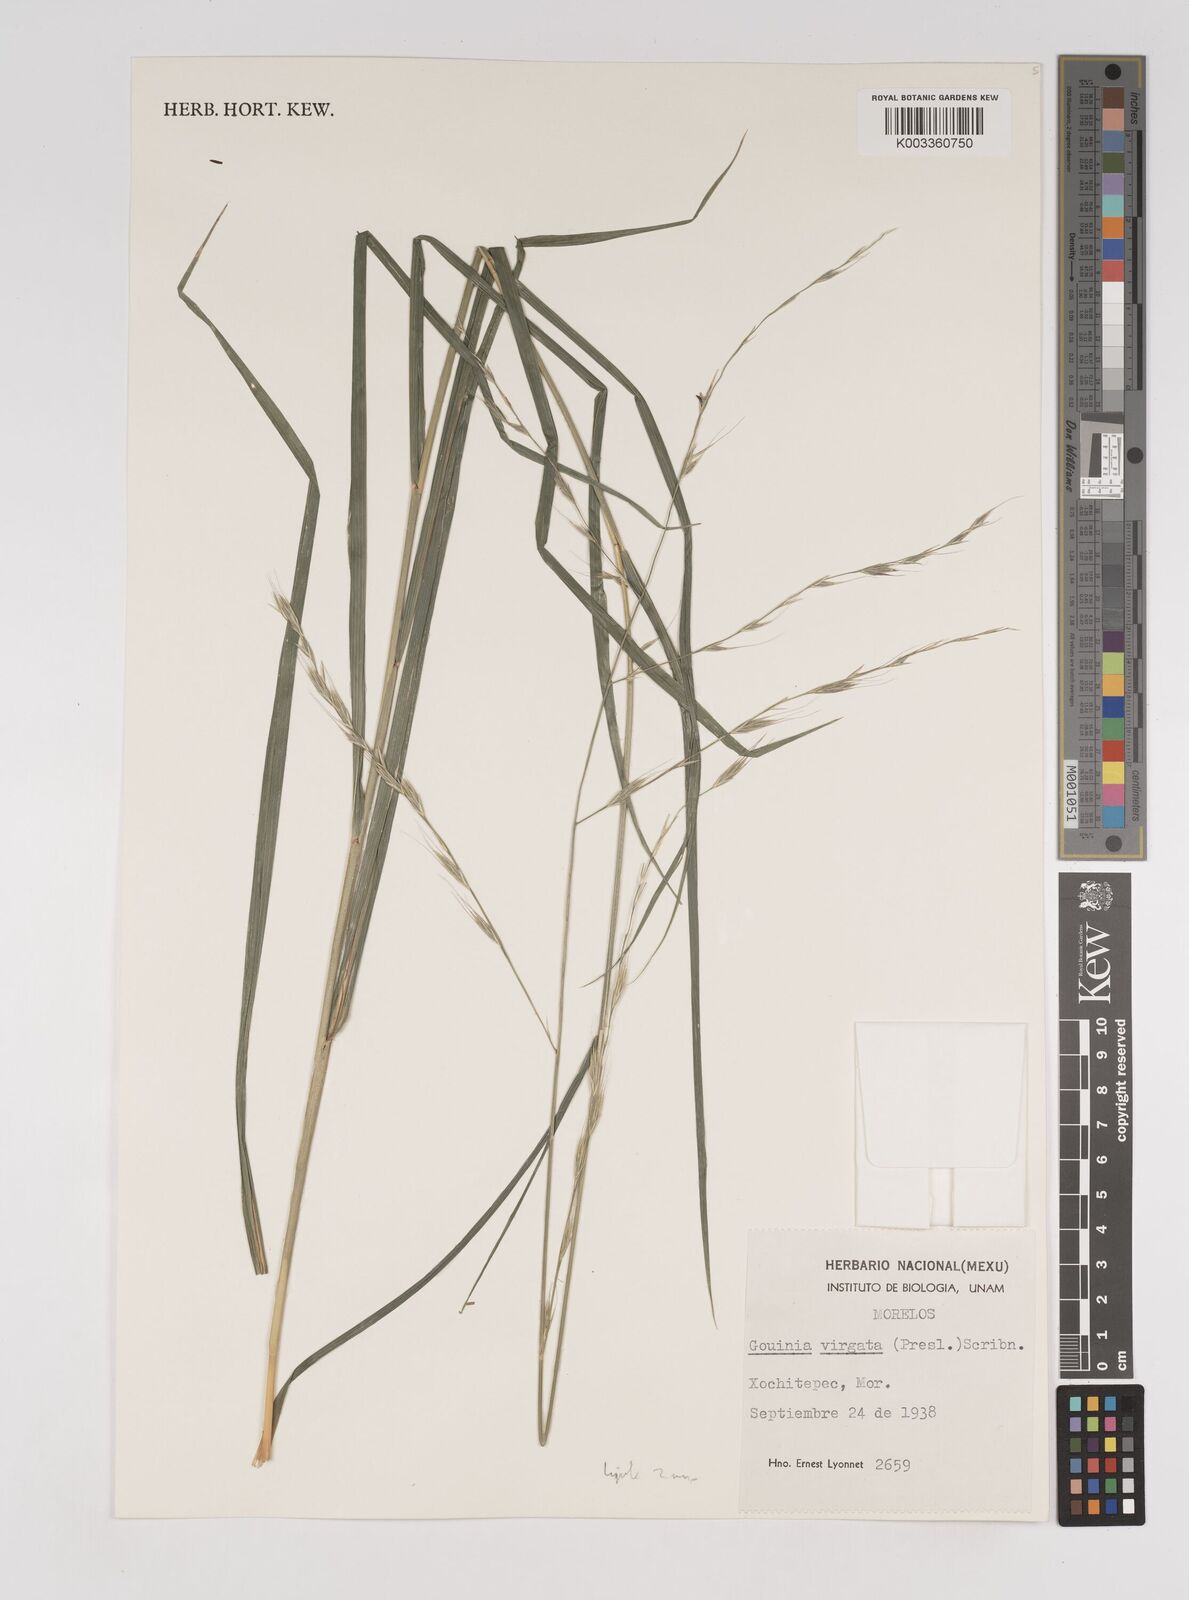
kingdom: Plantae
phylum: Tracheophyta
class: Liliopsida
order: Poales
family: Poaceae
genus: Gouinia
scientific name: Gouinia virgata
